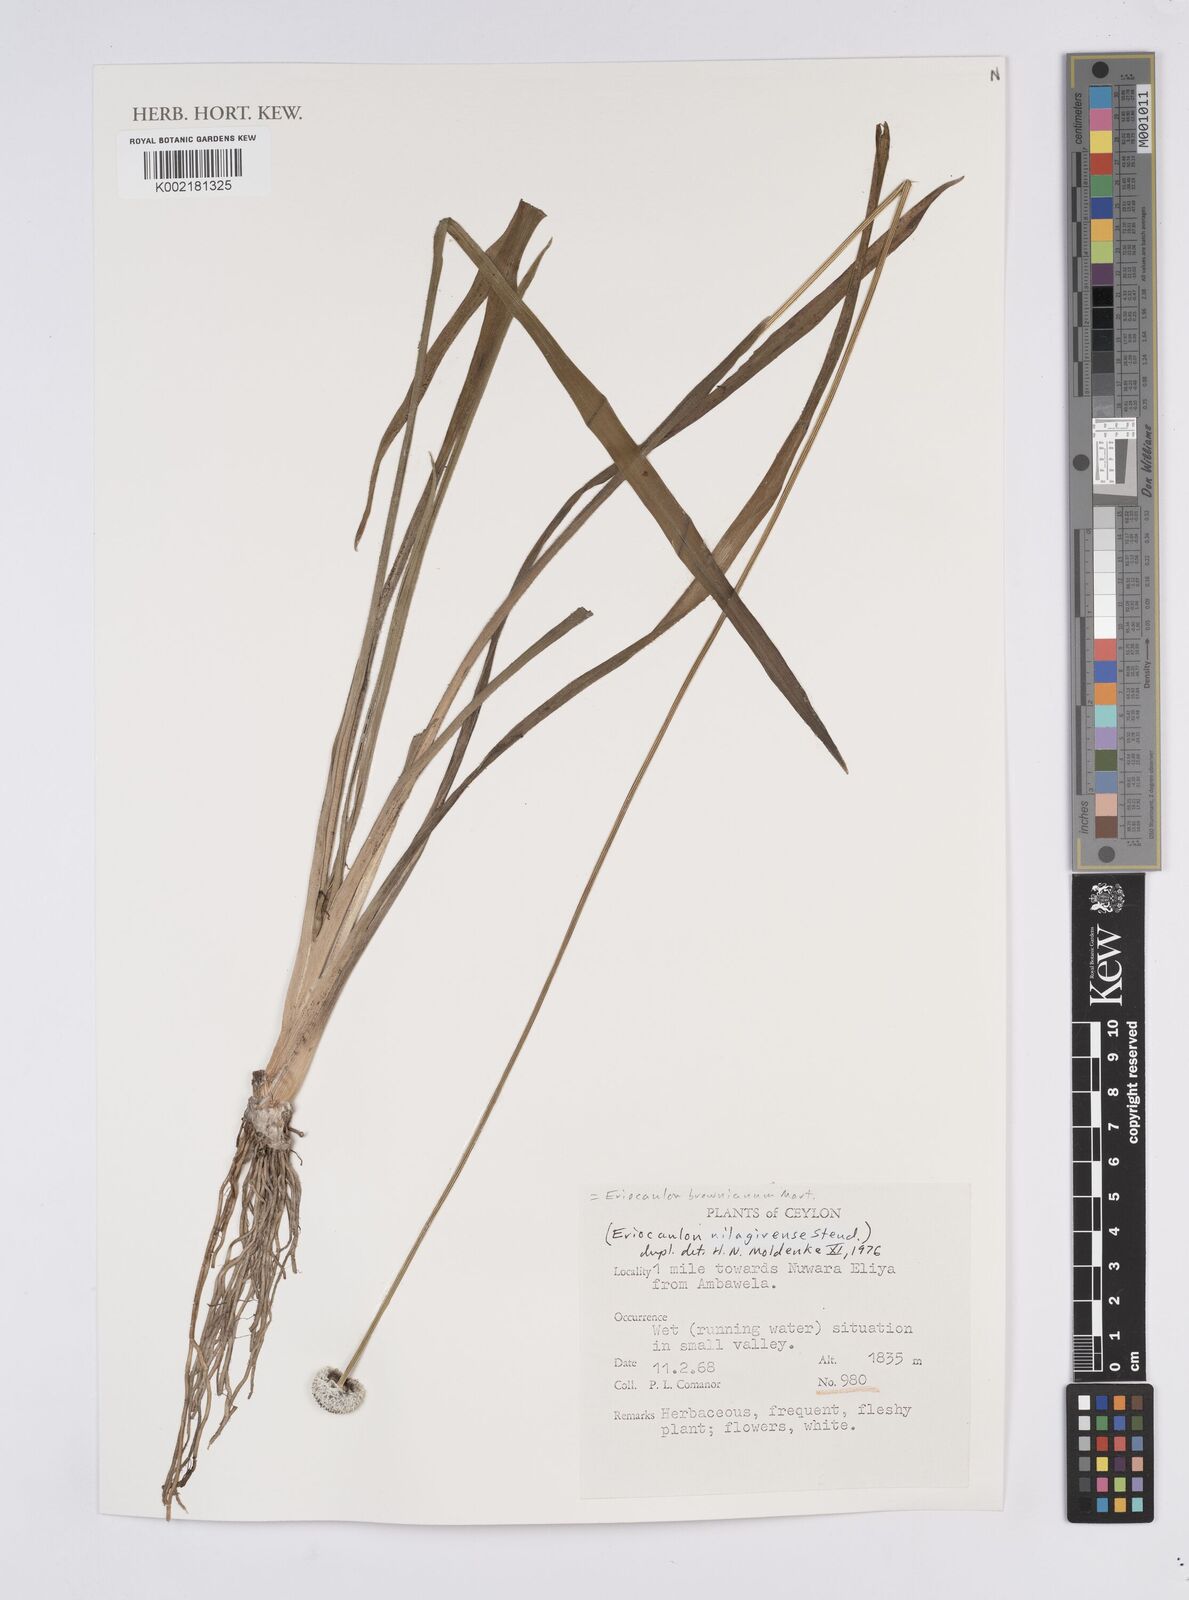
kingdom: Plantae
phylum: Tracheophyta
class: Liliopsida
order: Poales
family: Eriocaulaceae
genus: Eriocaulon
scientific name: Eriocaulon brownianum
